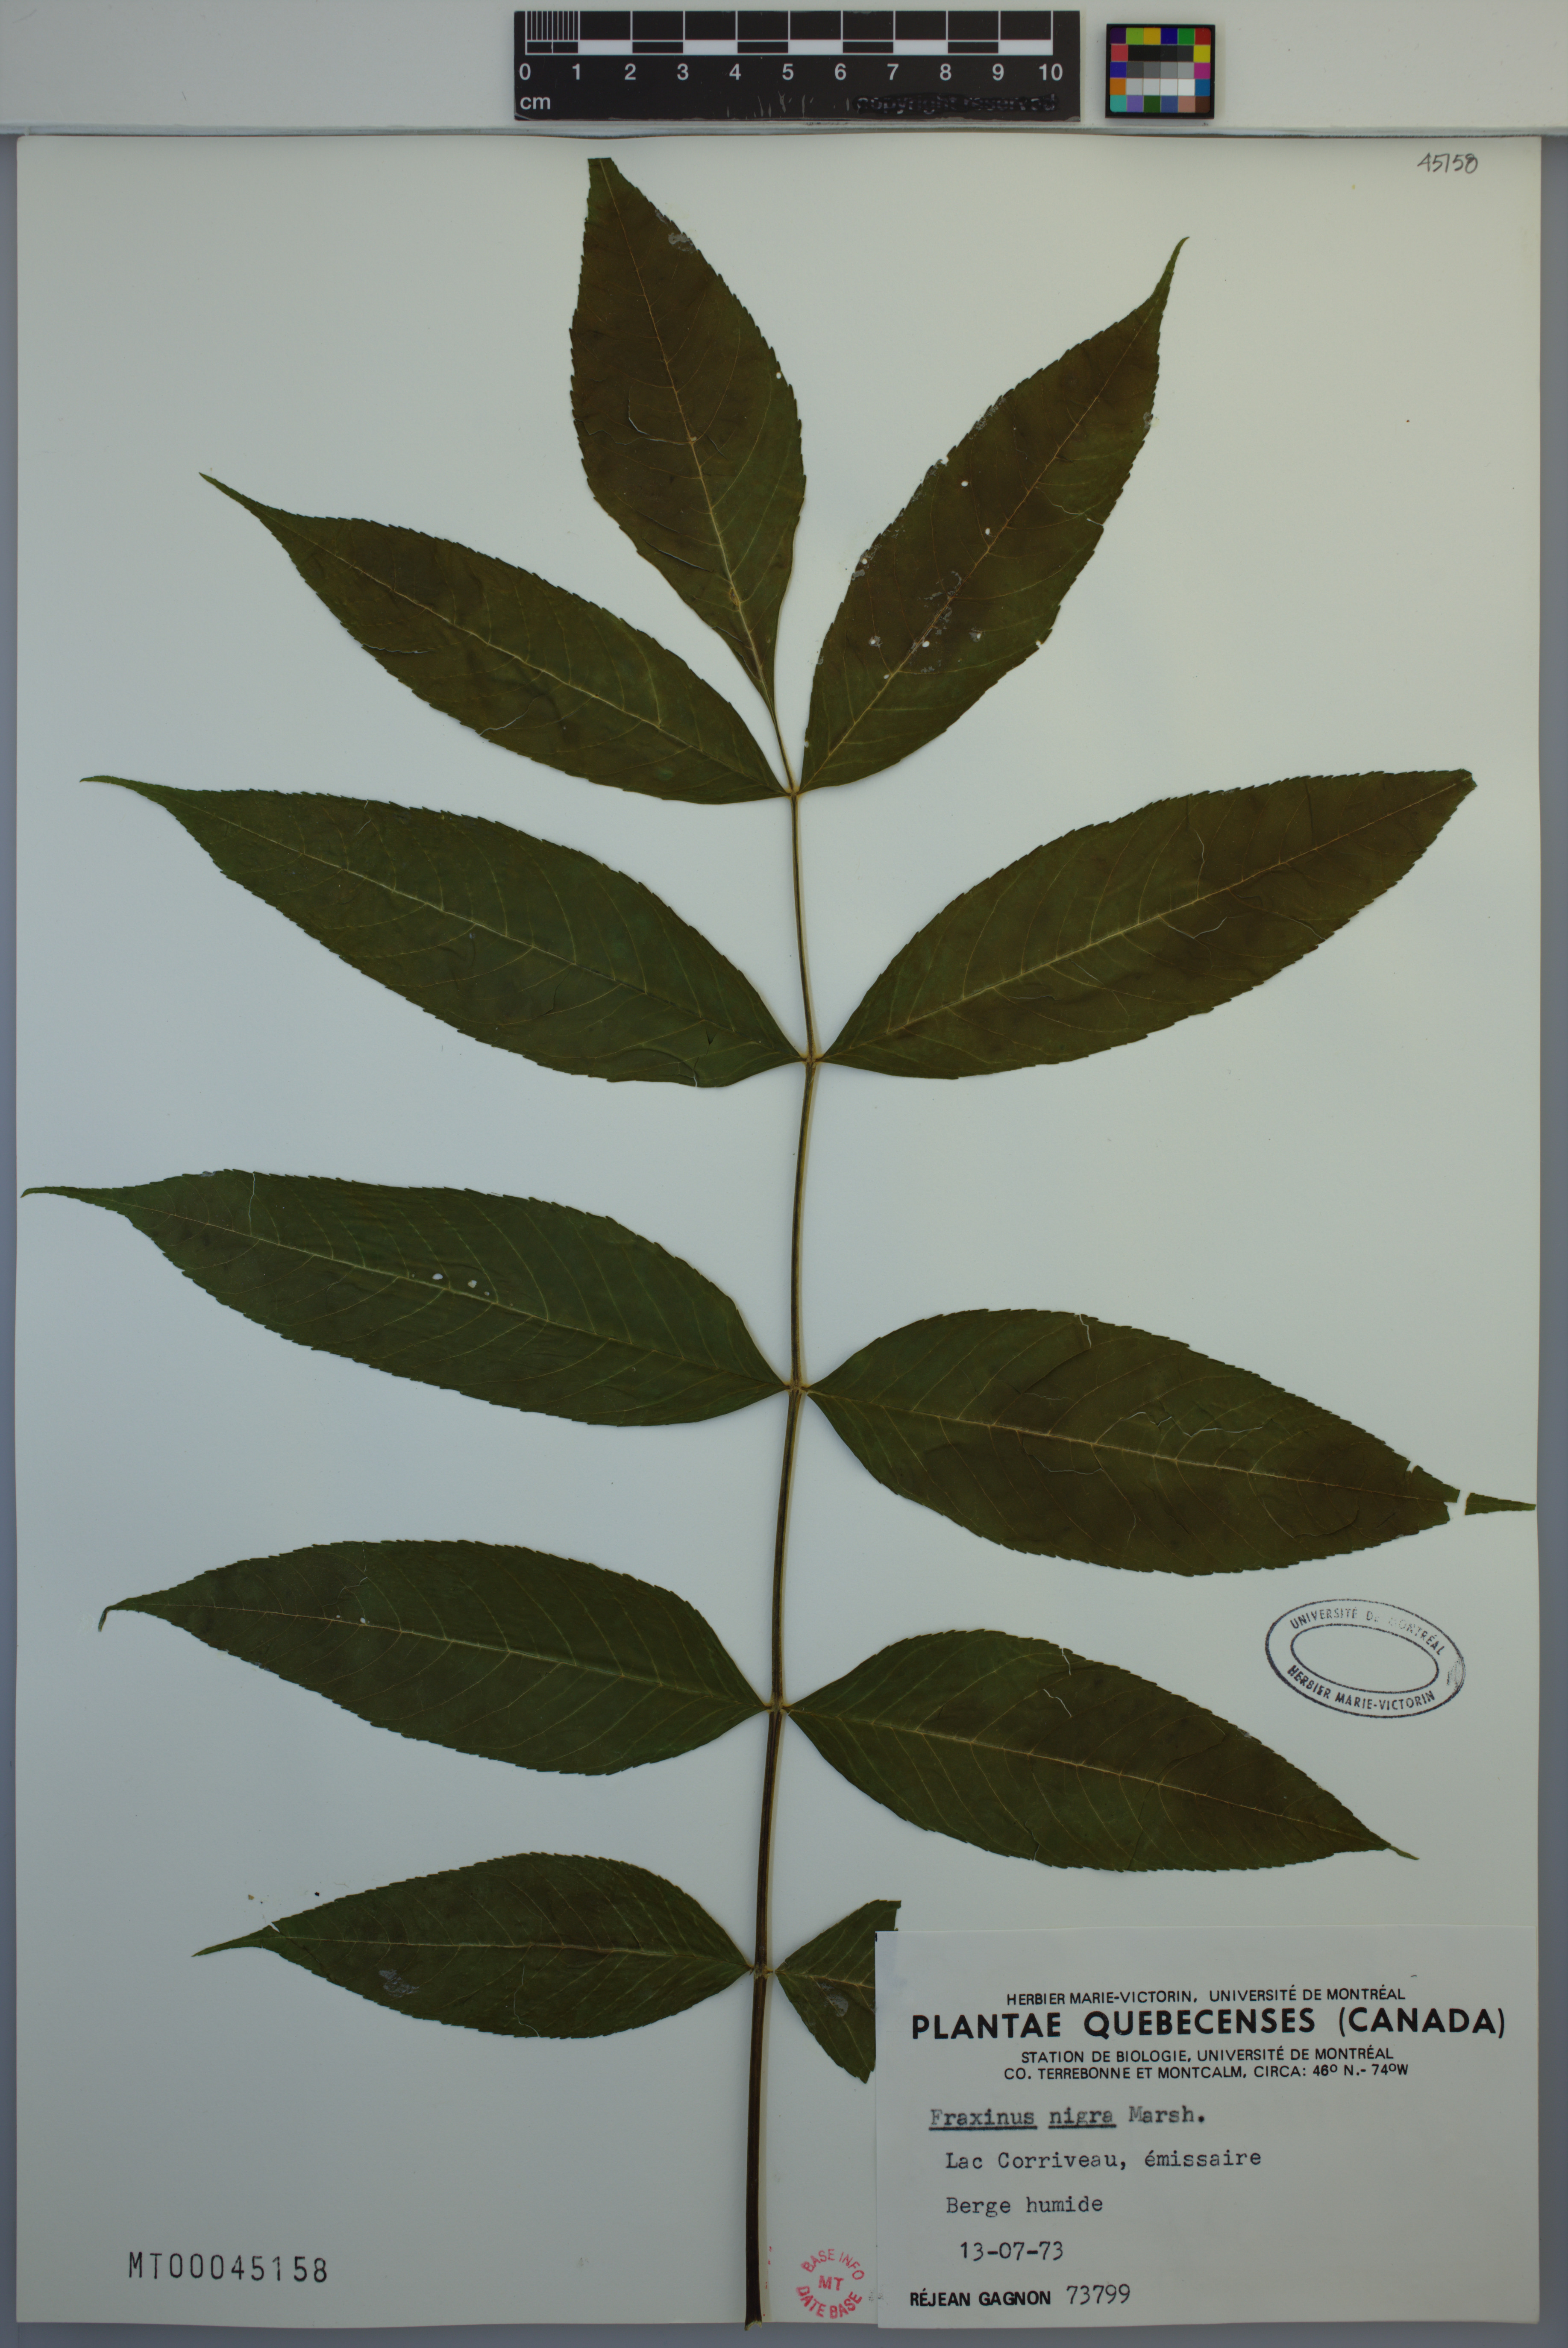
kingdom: Plantae
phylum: Tracheophyta
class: Magnoliopsida
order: Lamiales
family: Oleaceae
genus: Fraxinus
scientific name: Fraxinus nigra
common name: Black ash
